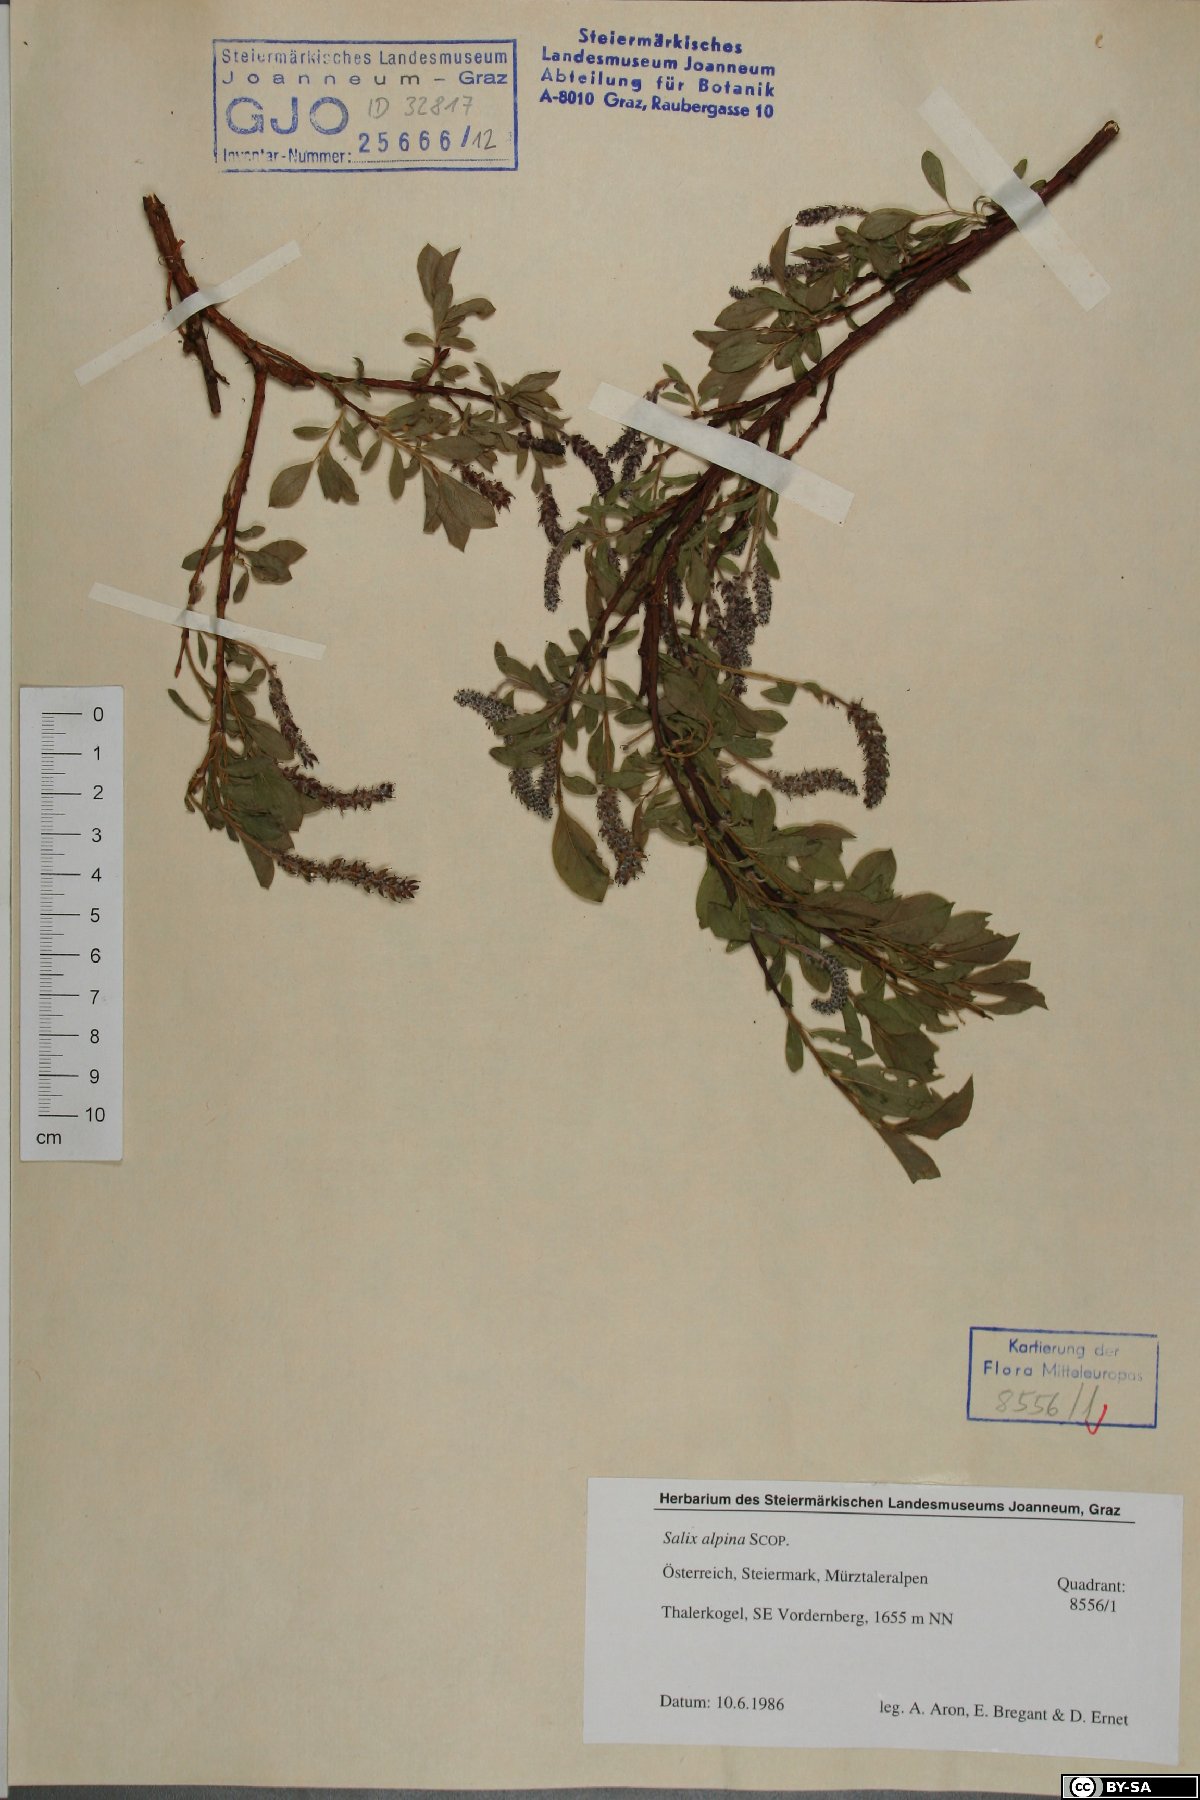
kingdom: Plantae
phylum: Tracheophyta
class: Magnoliopsida
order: Malpighiales
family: Salicaceae
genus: Salix
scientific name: Salix alpina
